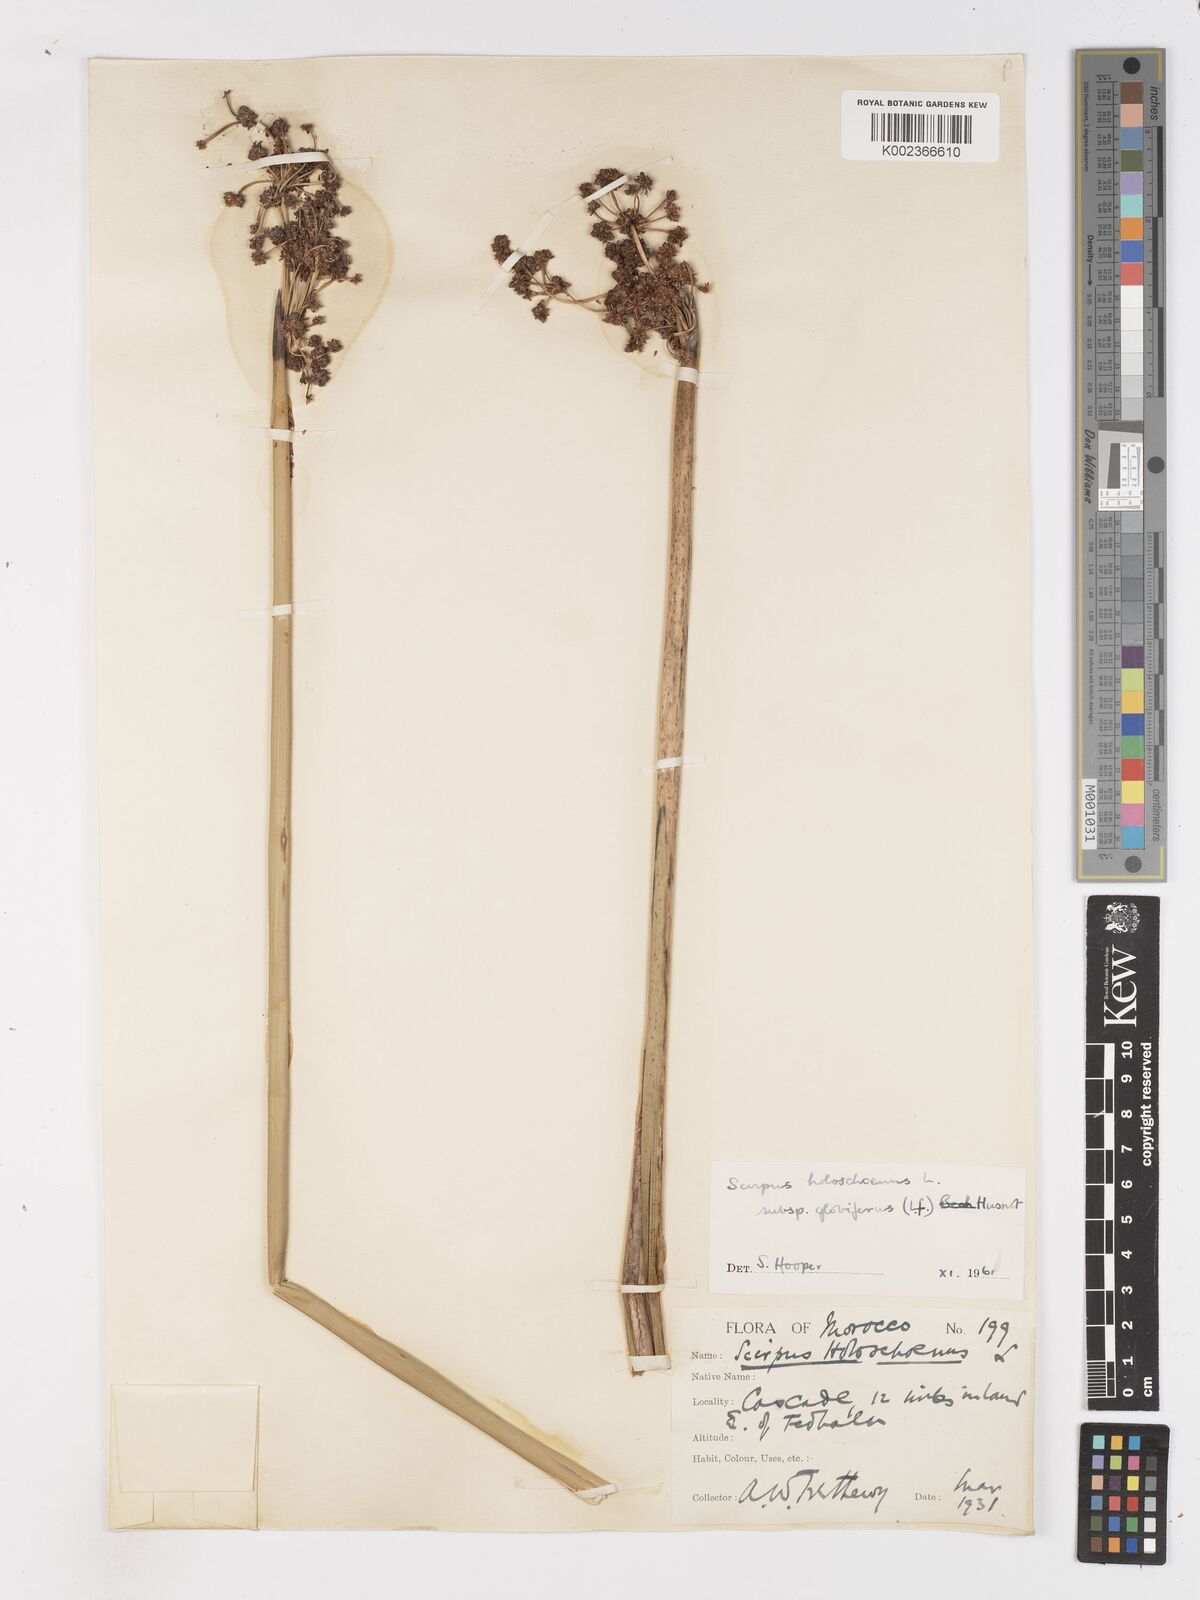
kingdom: Plantae
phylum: Tracheophyta
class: Liliopsida
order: Poales
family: Cyperaceae
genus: Scirpoides
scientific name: Scirpoides holoschoenus
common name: Round-headed club-rush
